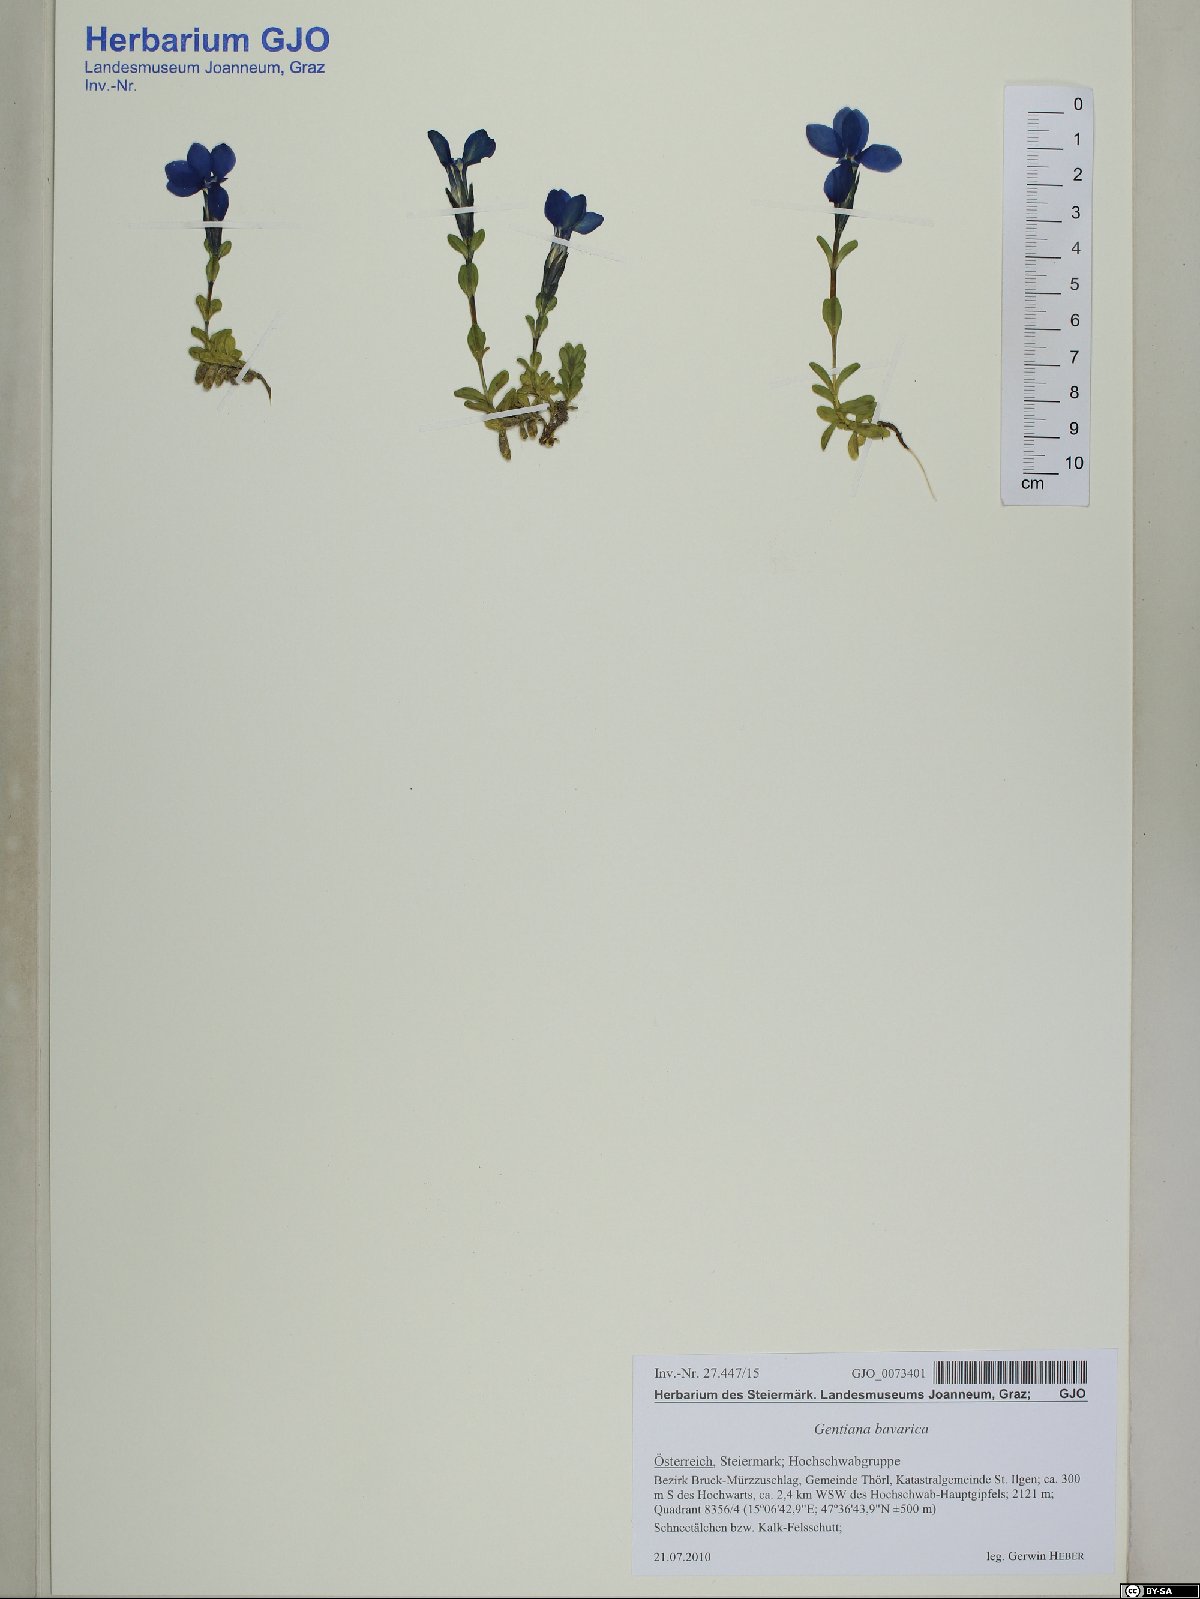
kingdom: Plantae
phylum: Tracheophyta
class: Magnoliopsida
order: Gentianales
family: Gentianaceae
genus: Gentiana
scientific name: Gentiana bavarica
